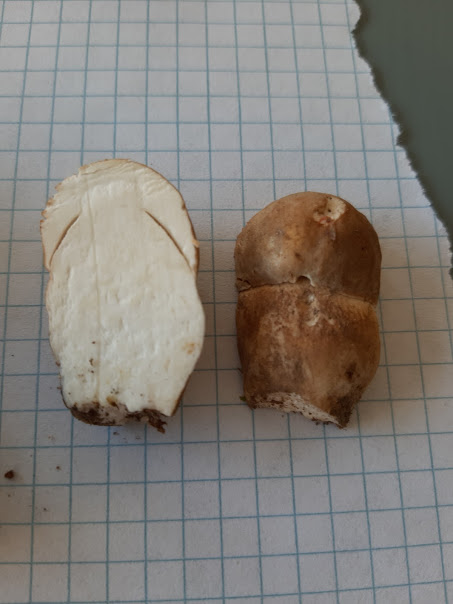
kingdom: Fungi
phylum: Basidiomycota
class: Agaricomycetes
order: Boletales
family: Boletaceae
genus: Boletus
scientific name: Boletus reticulatus
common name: sommer-rørhat
